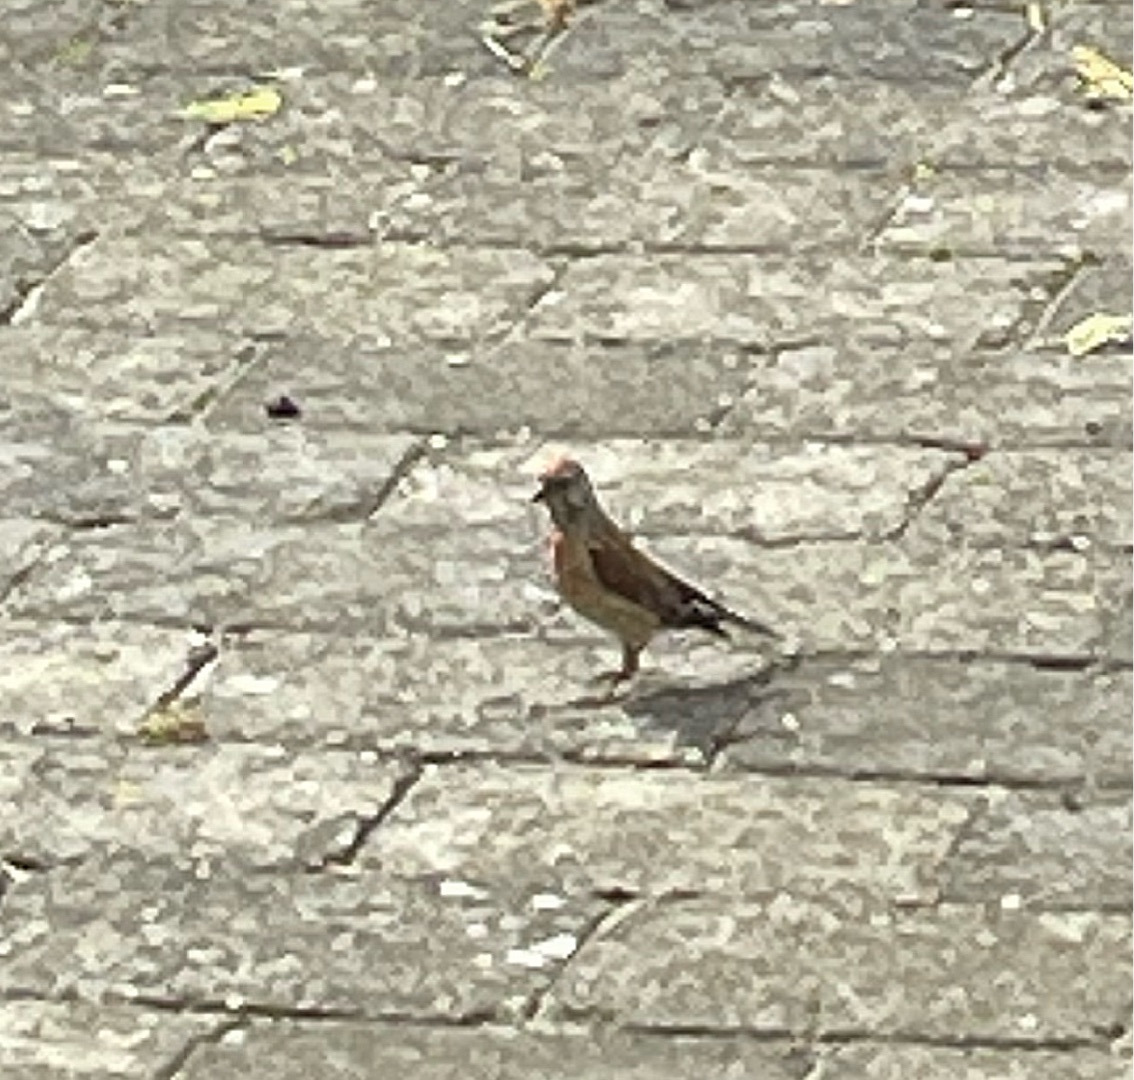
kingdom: Animalia
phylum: Chordata
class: Aves
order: Passeriformes
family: Fringillidae
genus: Linaria
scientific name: Linaria cannabina
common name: Tornirisk
